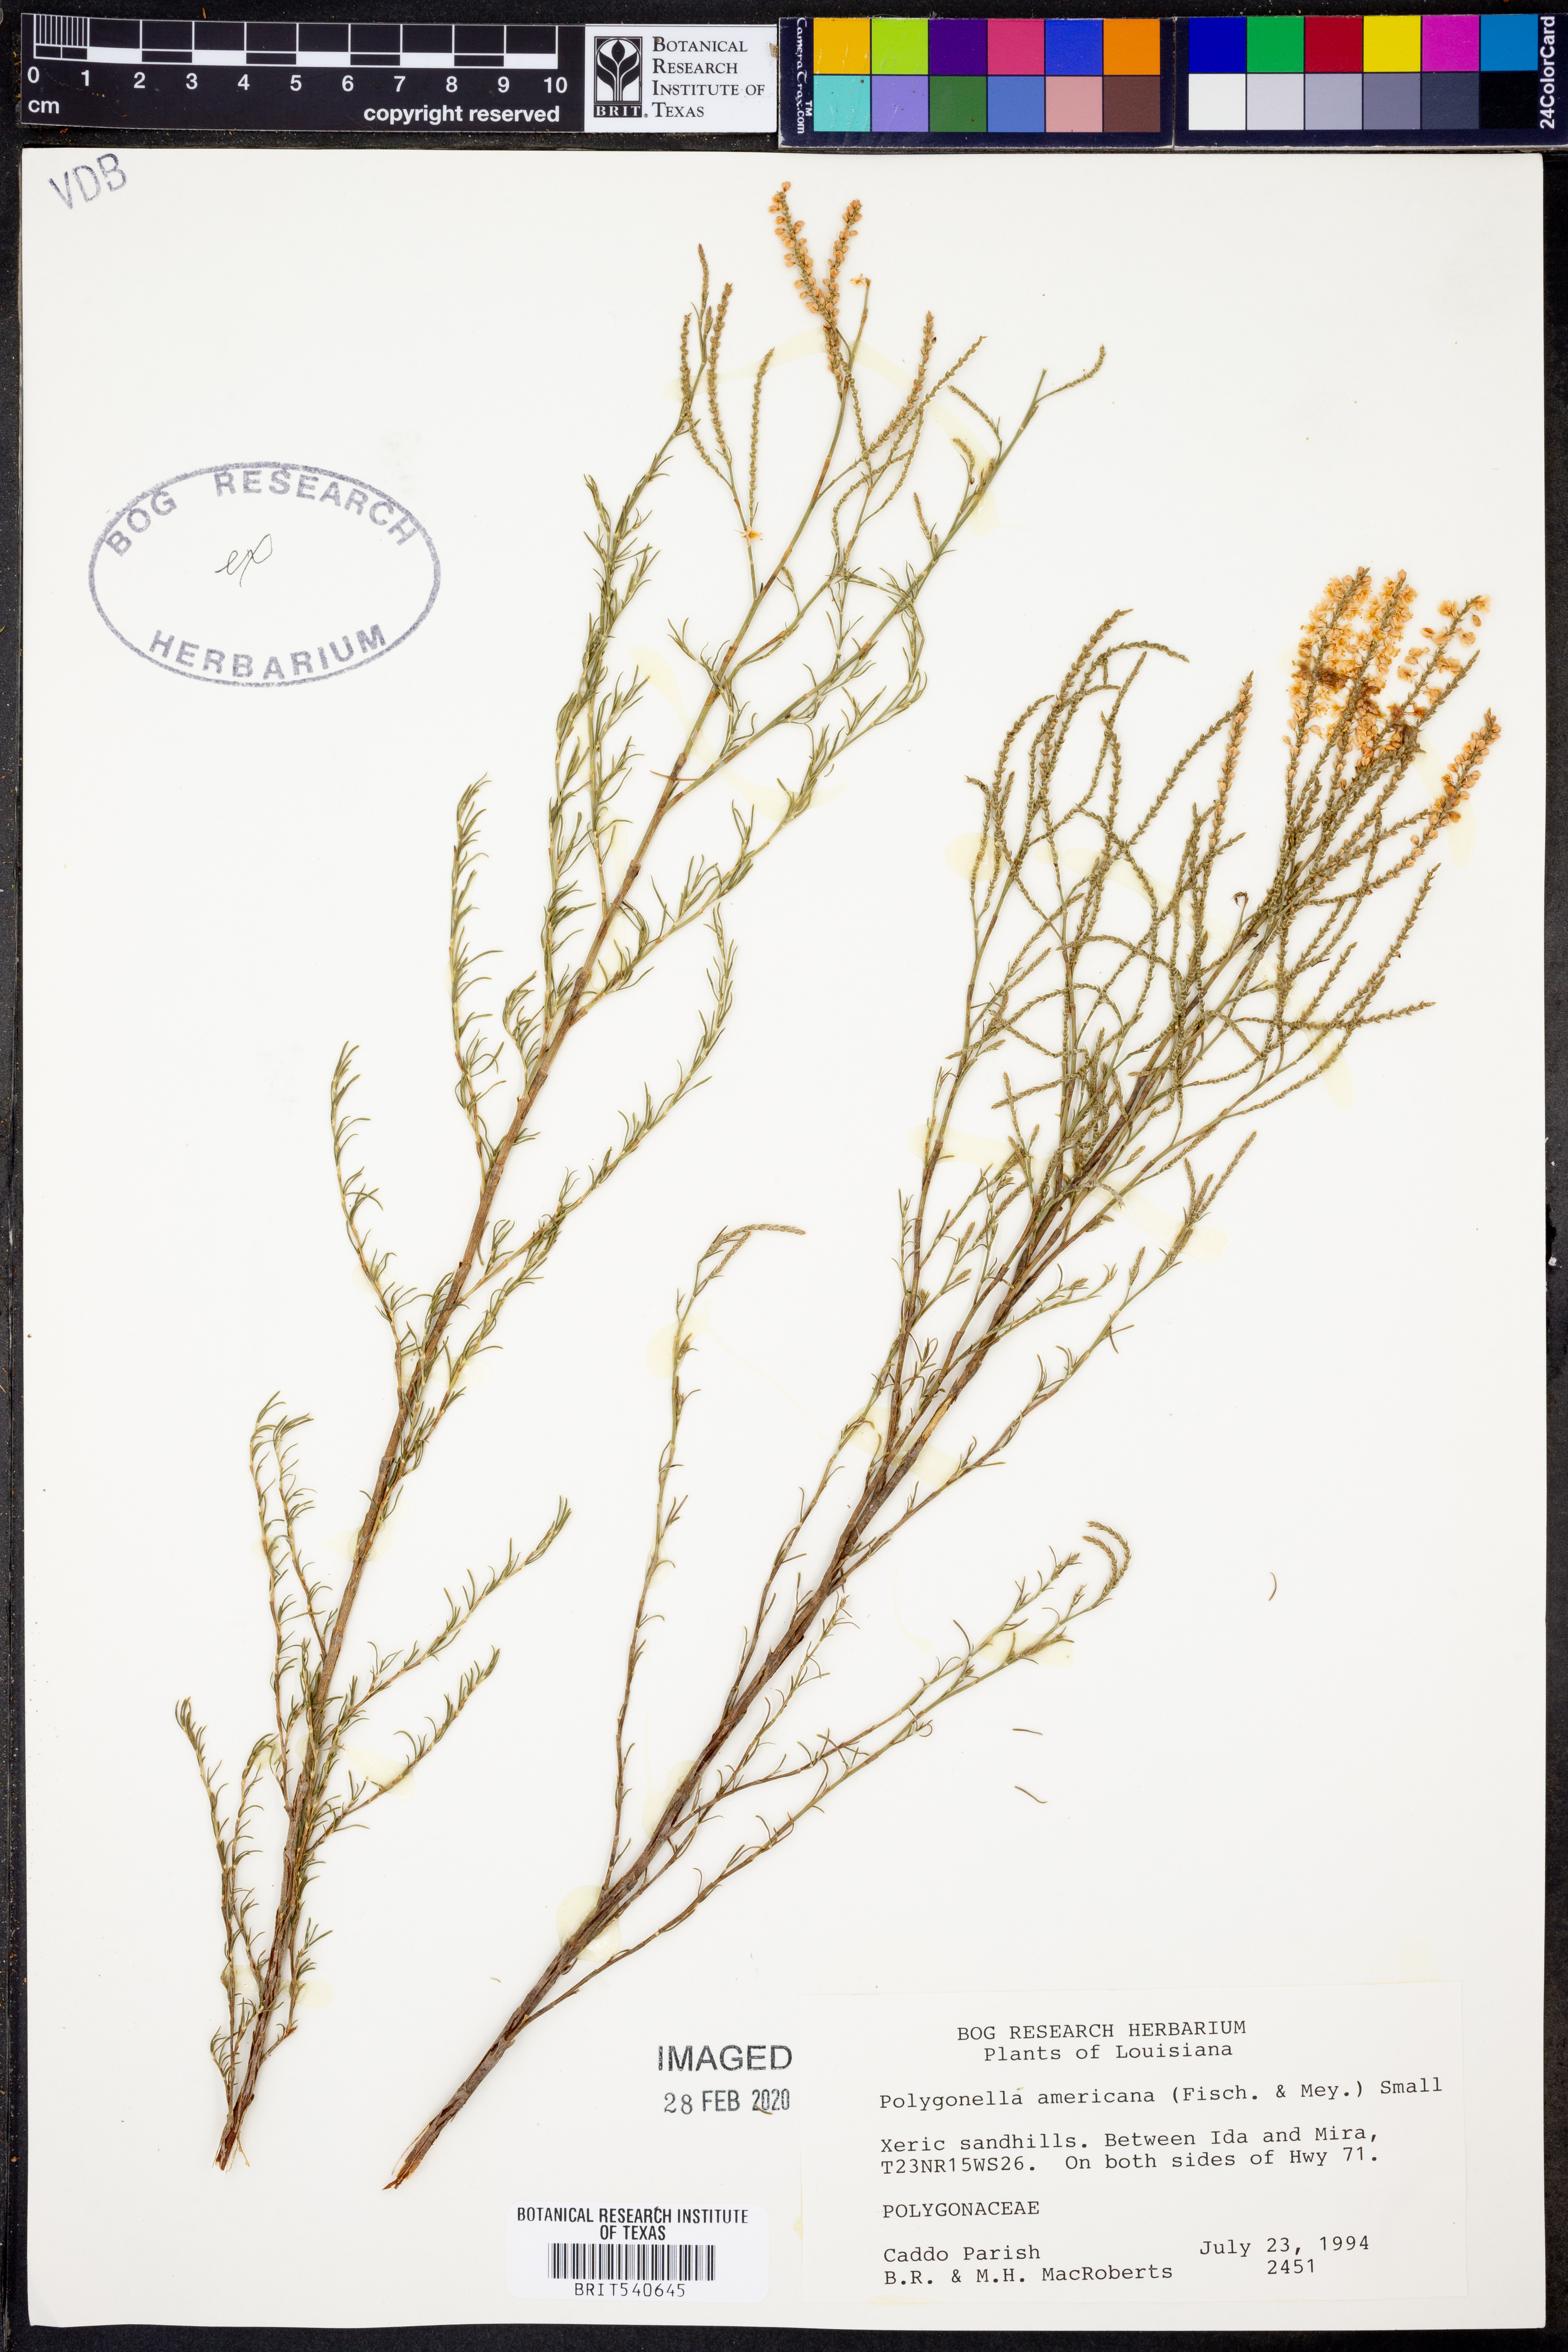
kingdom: Plantae
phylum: Tracheophyta
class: Magnoliopsida
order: Caryophyllales
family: Polygonaceae
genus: Polygonella
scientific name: Polygonella americana
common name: Southern jointweed
